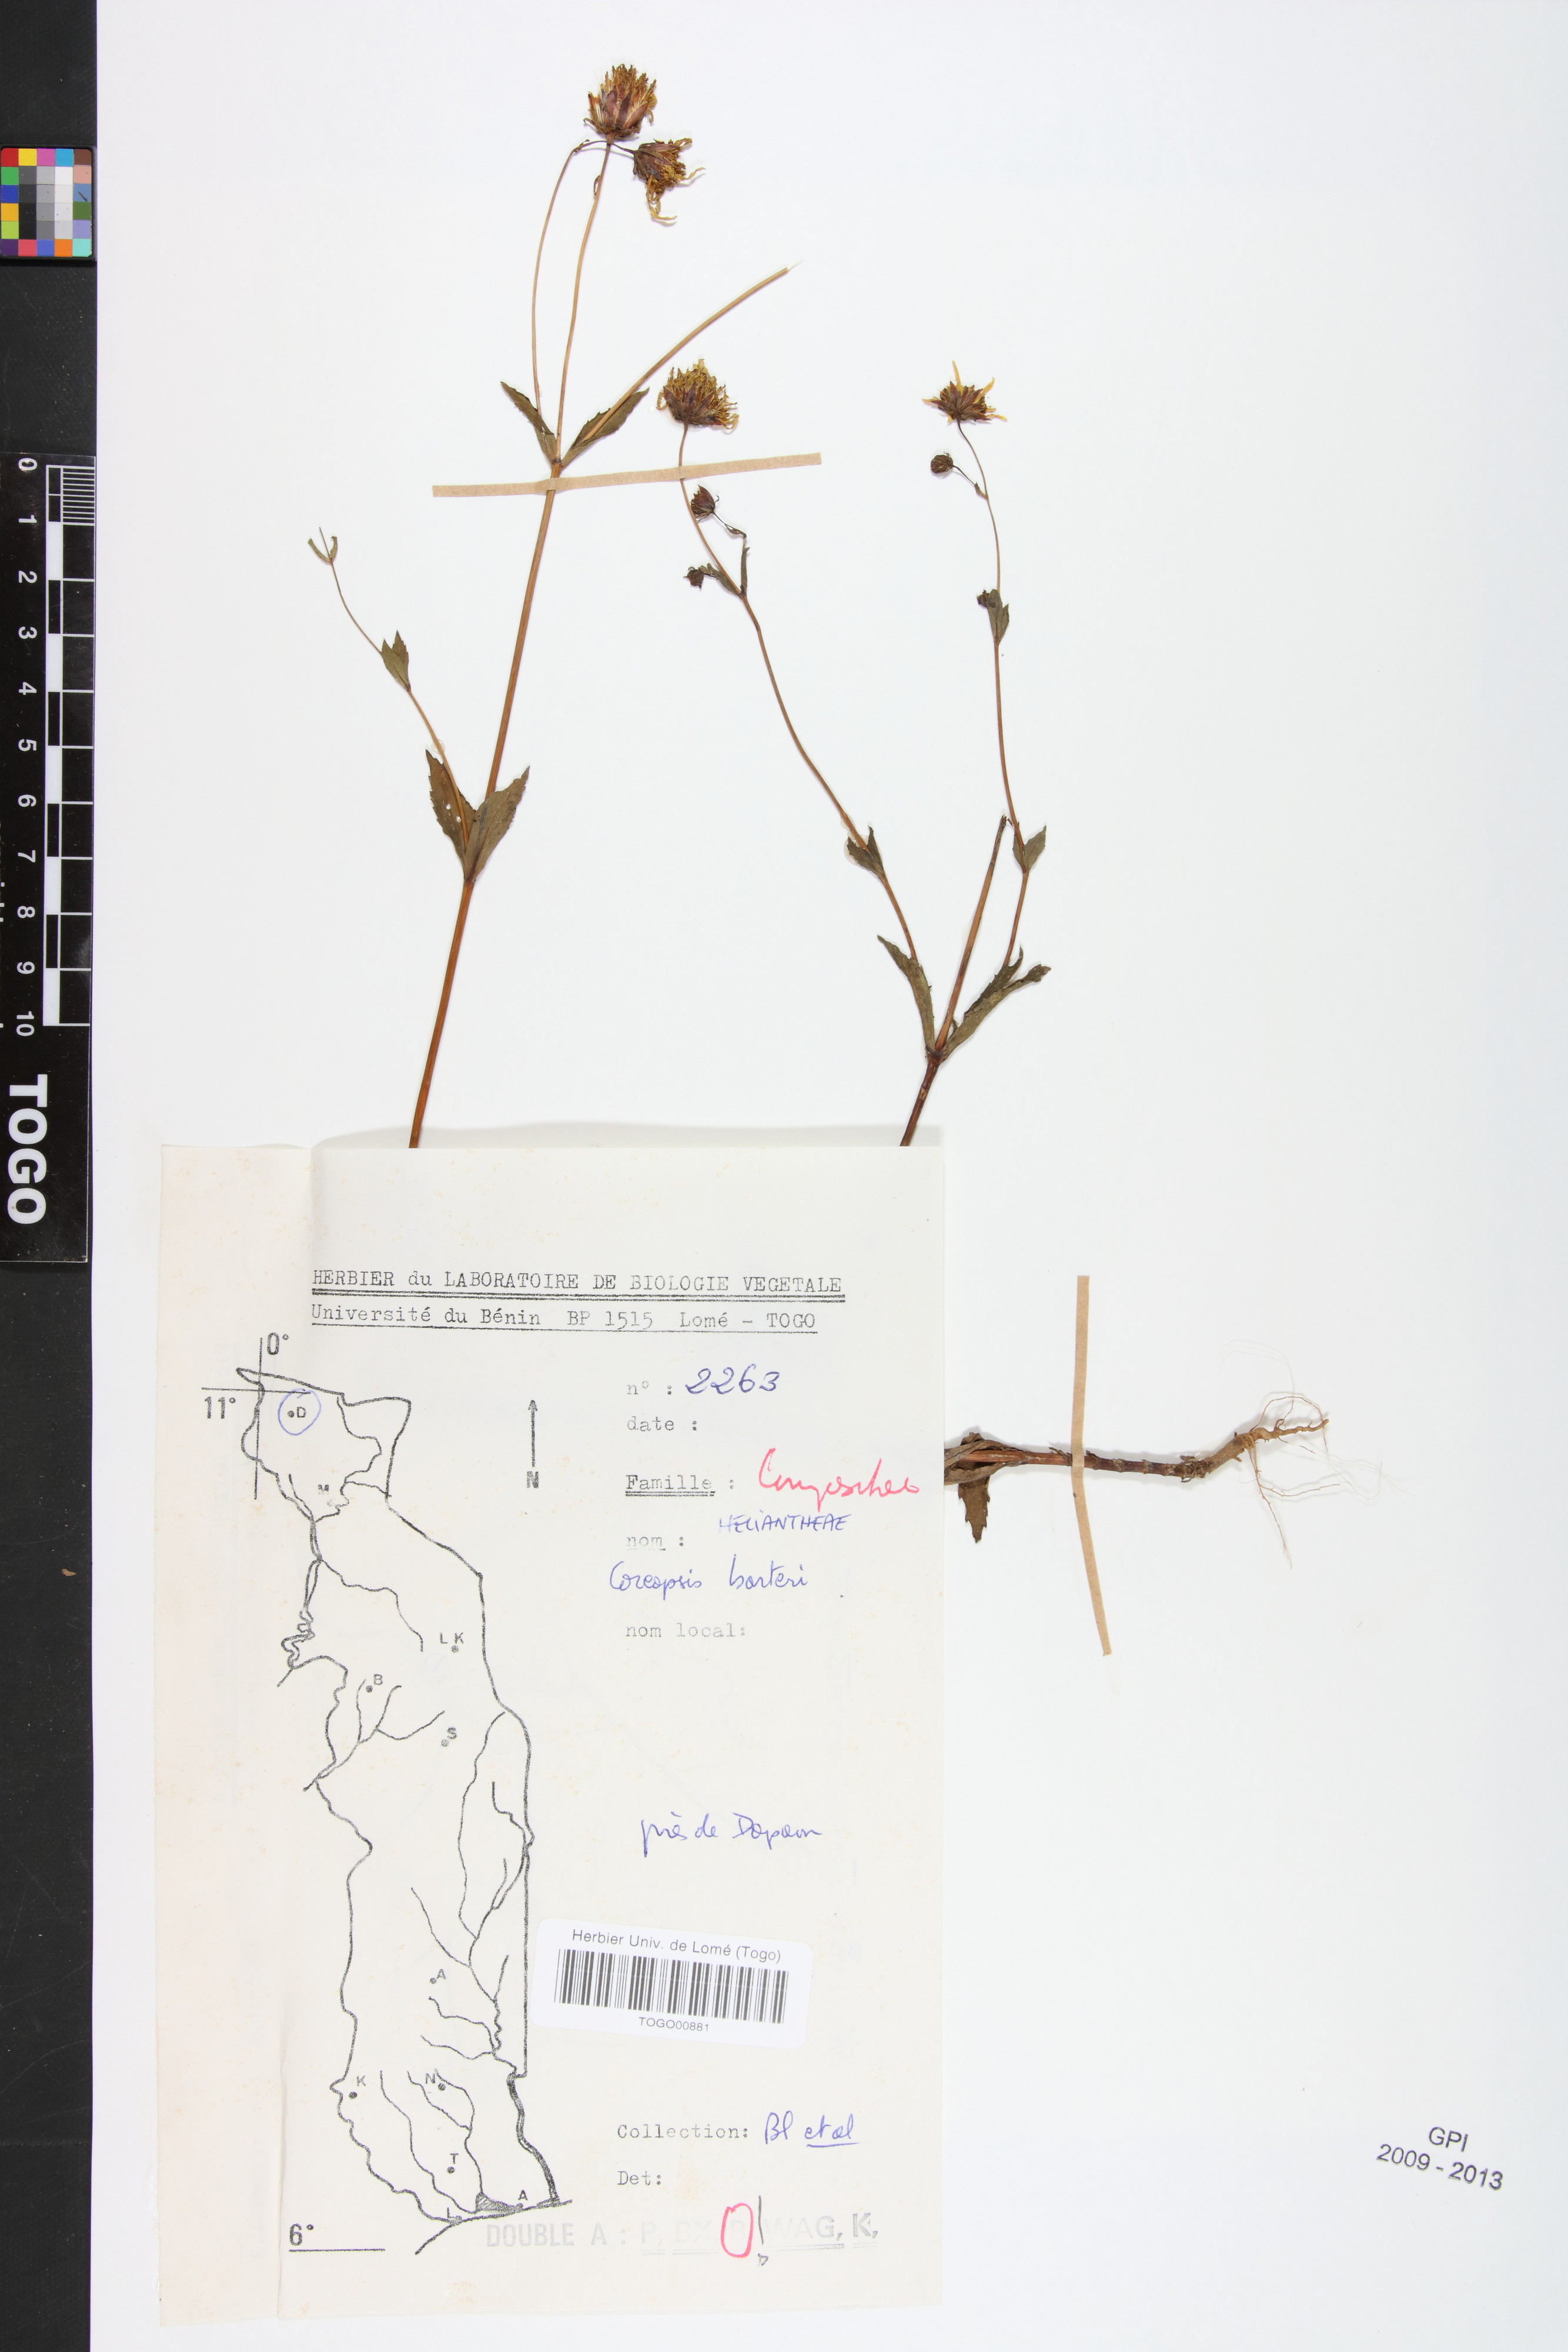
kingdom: Plantae
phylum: Tracheophyta
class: Magnoliopsida
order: Asterales
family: Asteraceae
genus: Bidens
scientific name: Bidens barteri
